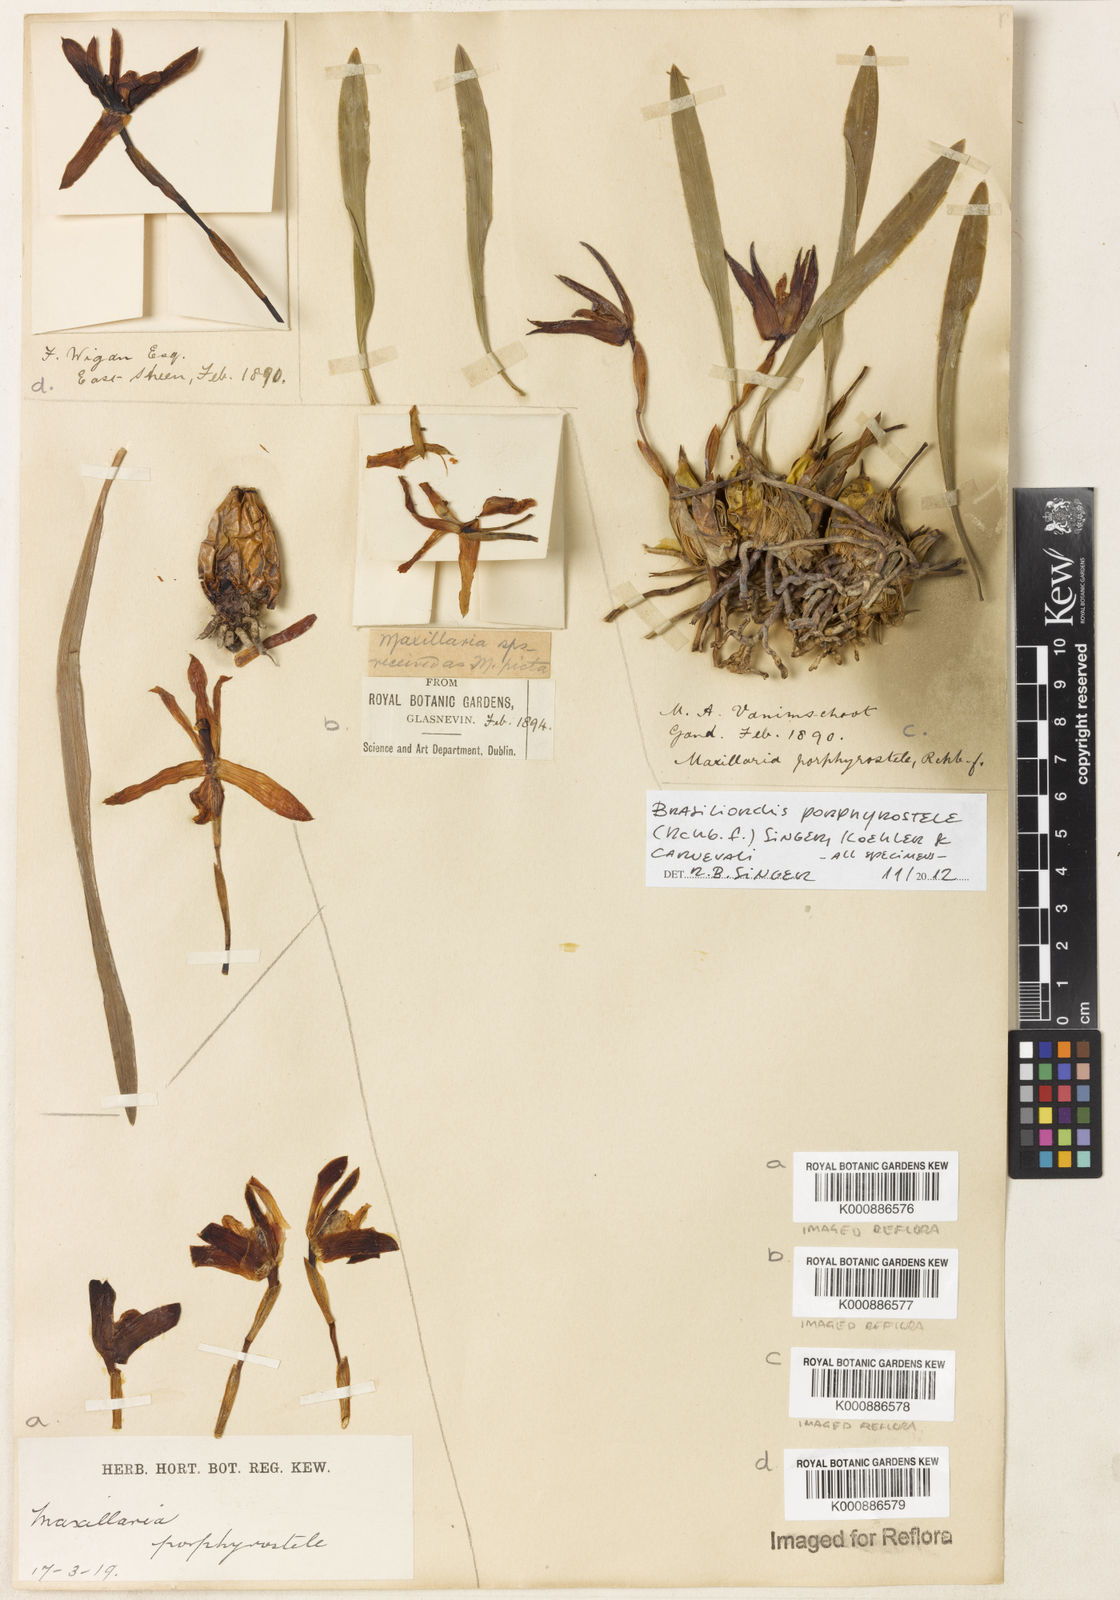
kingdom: Plantae
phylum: Tracheophyta
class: Liliopsida
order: Asparagales
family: Orchidaceae
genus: Maxillaria
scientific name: Maxillaria porphyrostele
